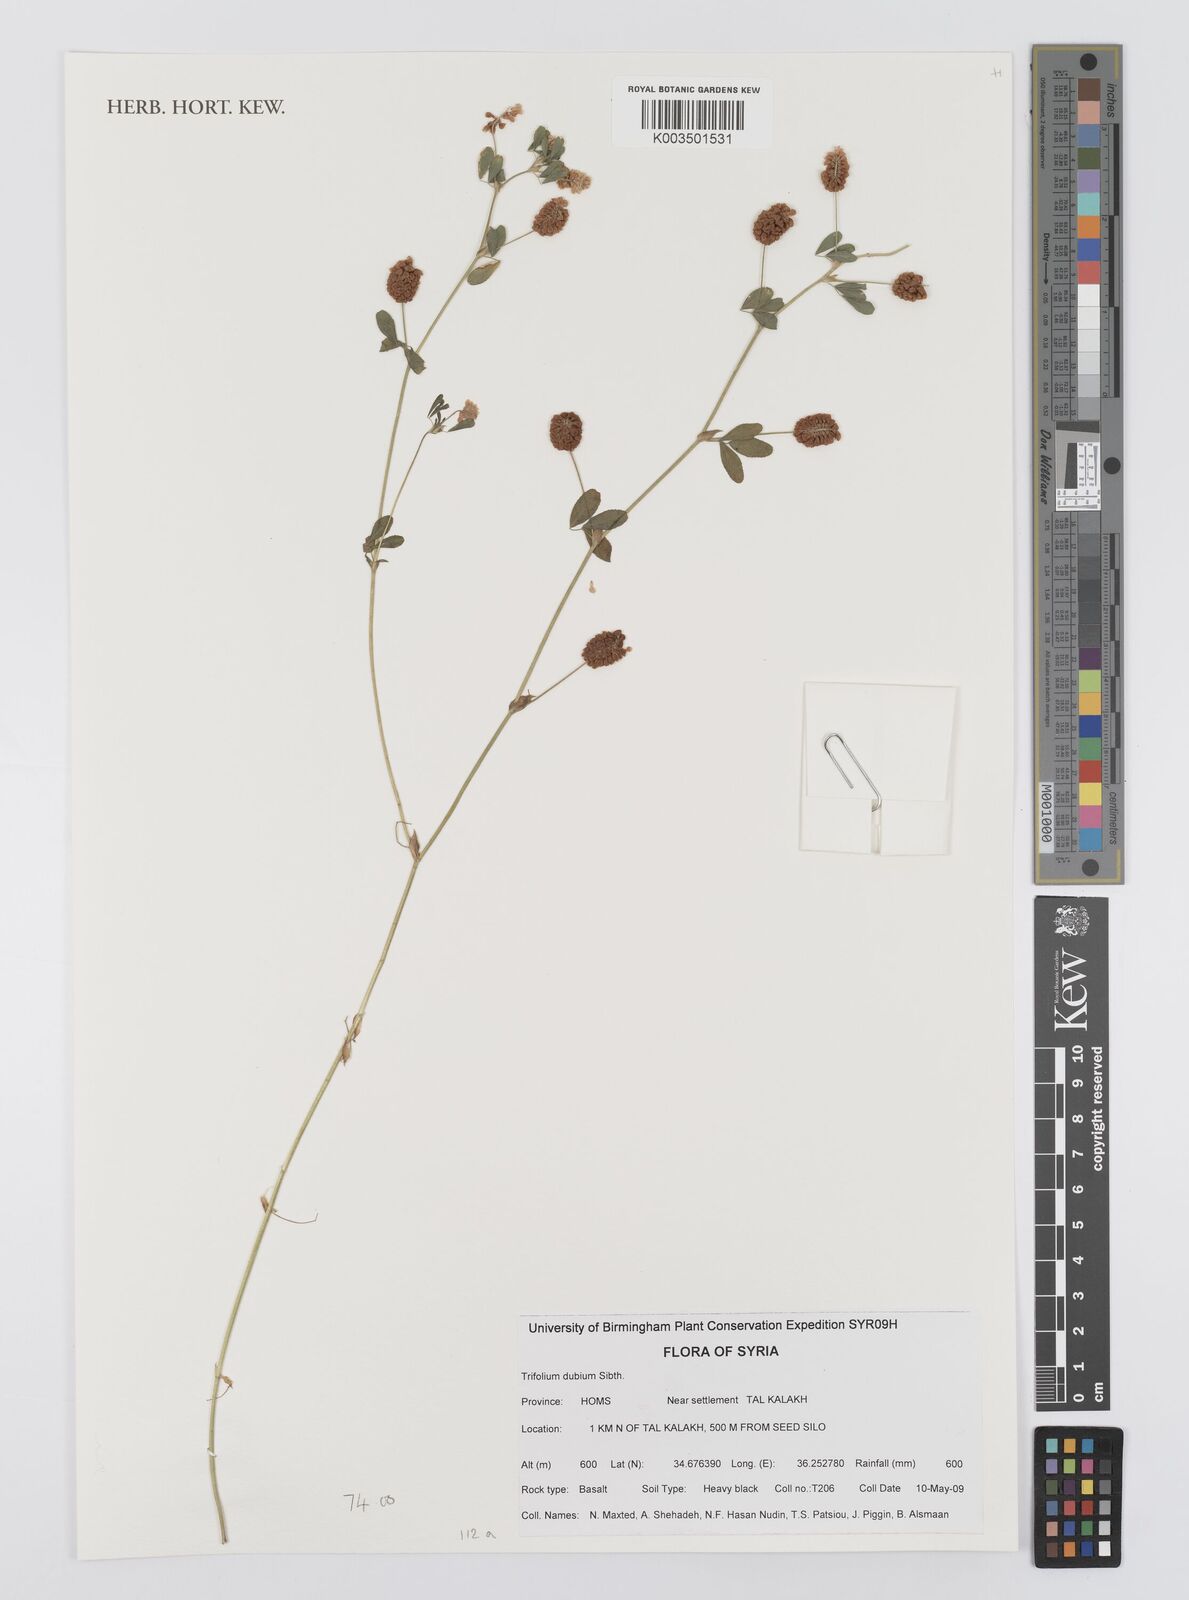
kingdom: Plantae
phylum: Tracheophyta
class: Magnoliopsida
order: Fabales
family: Fabaceae
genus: Trifolium
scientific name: Trifolium dubium
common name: Suckling clover
